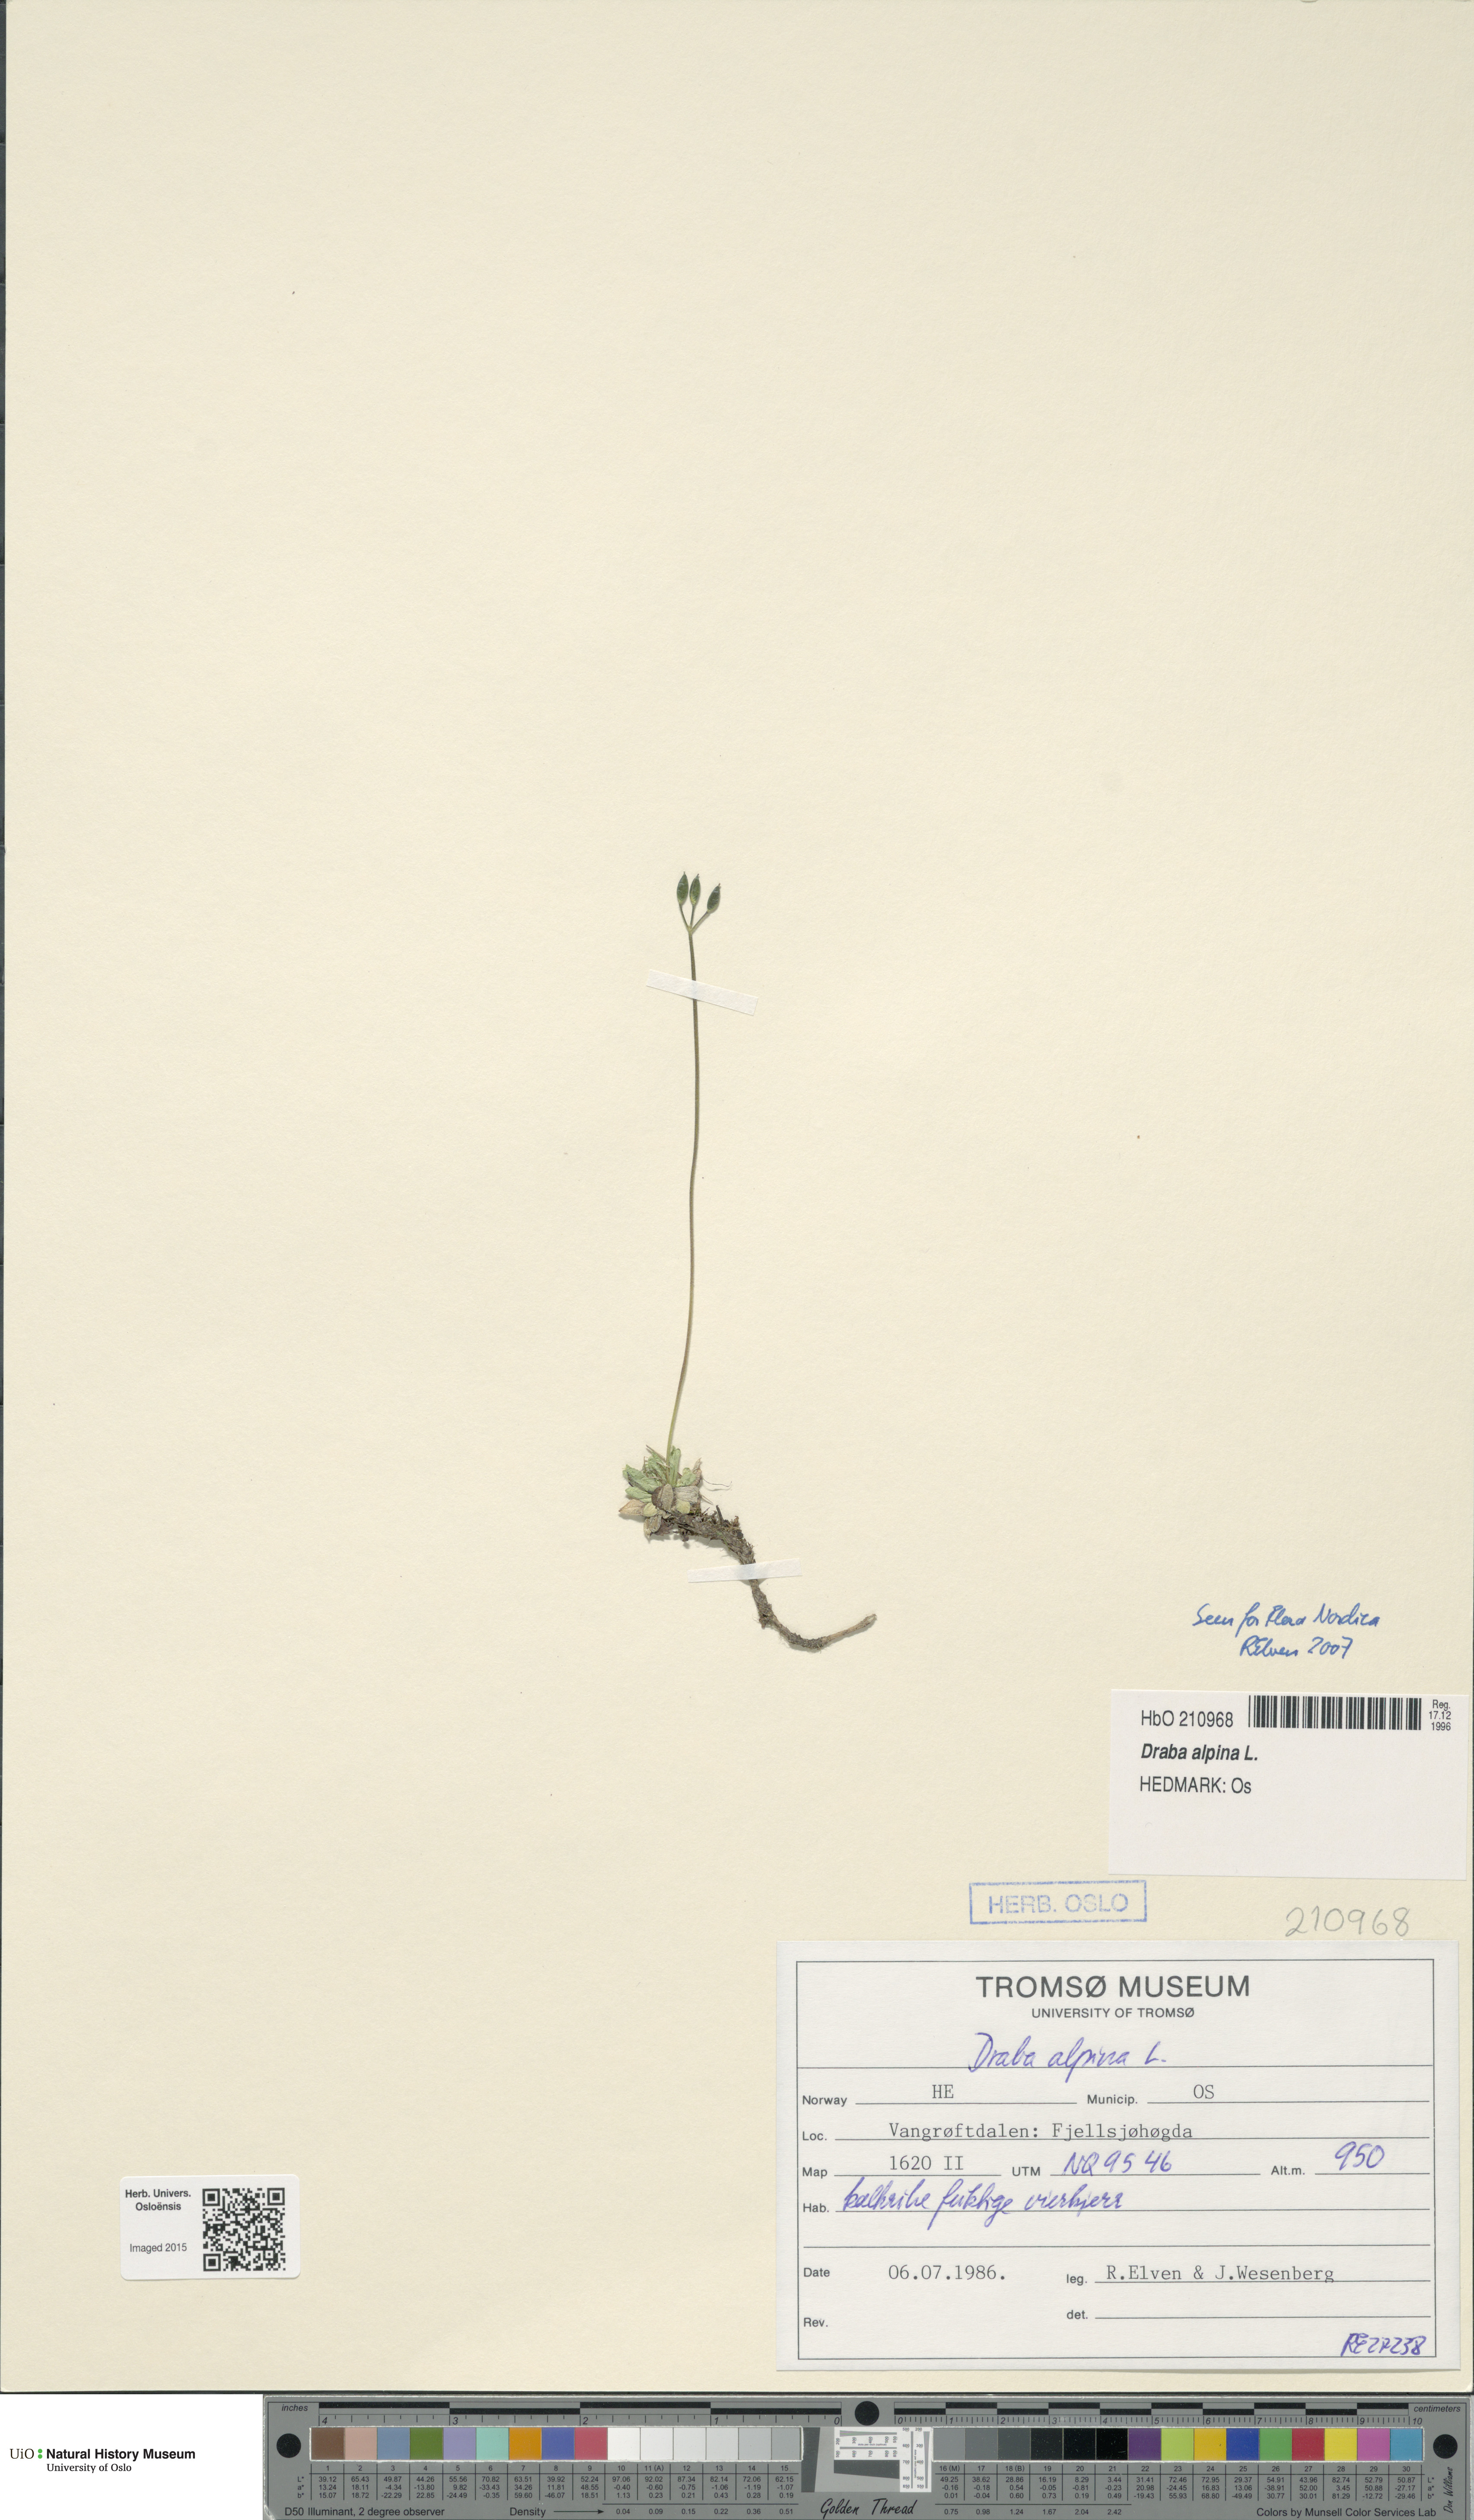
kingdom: Plantae
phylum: Tracheophyta
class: Magnoliopsida
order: Brassicales
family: Brassicaceae
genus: Draba
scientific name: Draba alpina
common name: Alpine draba
